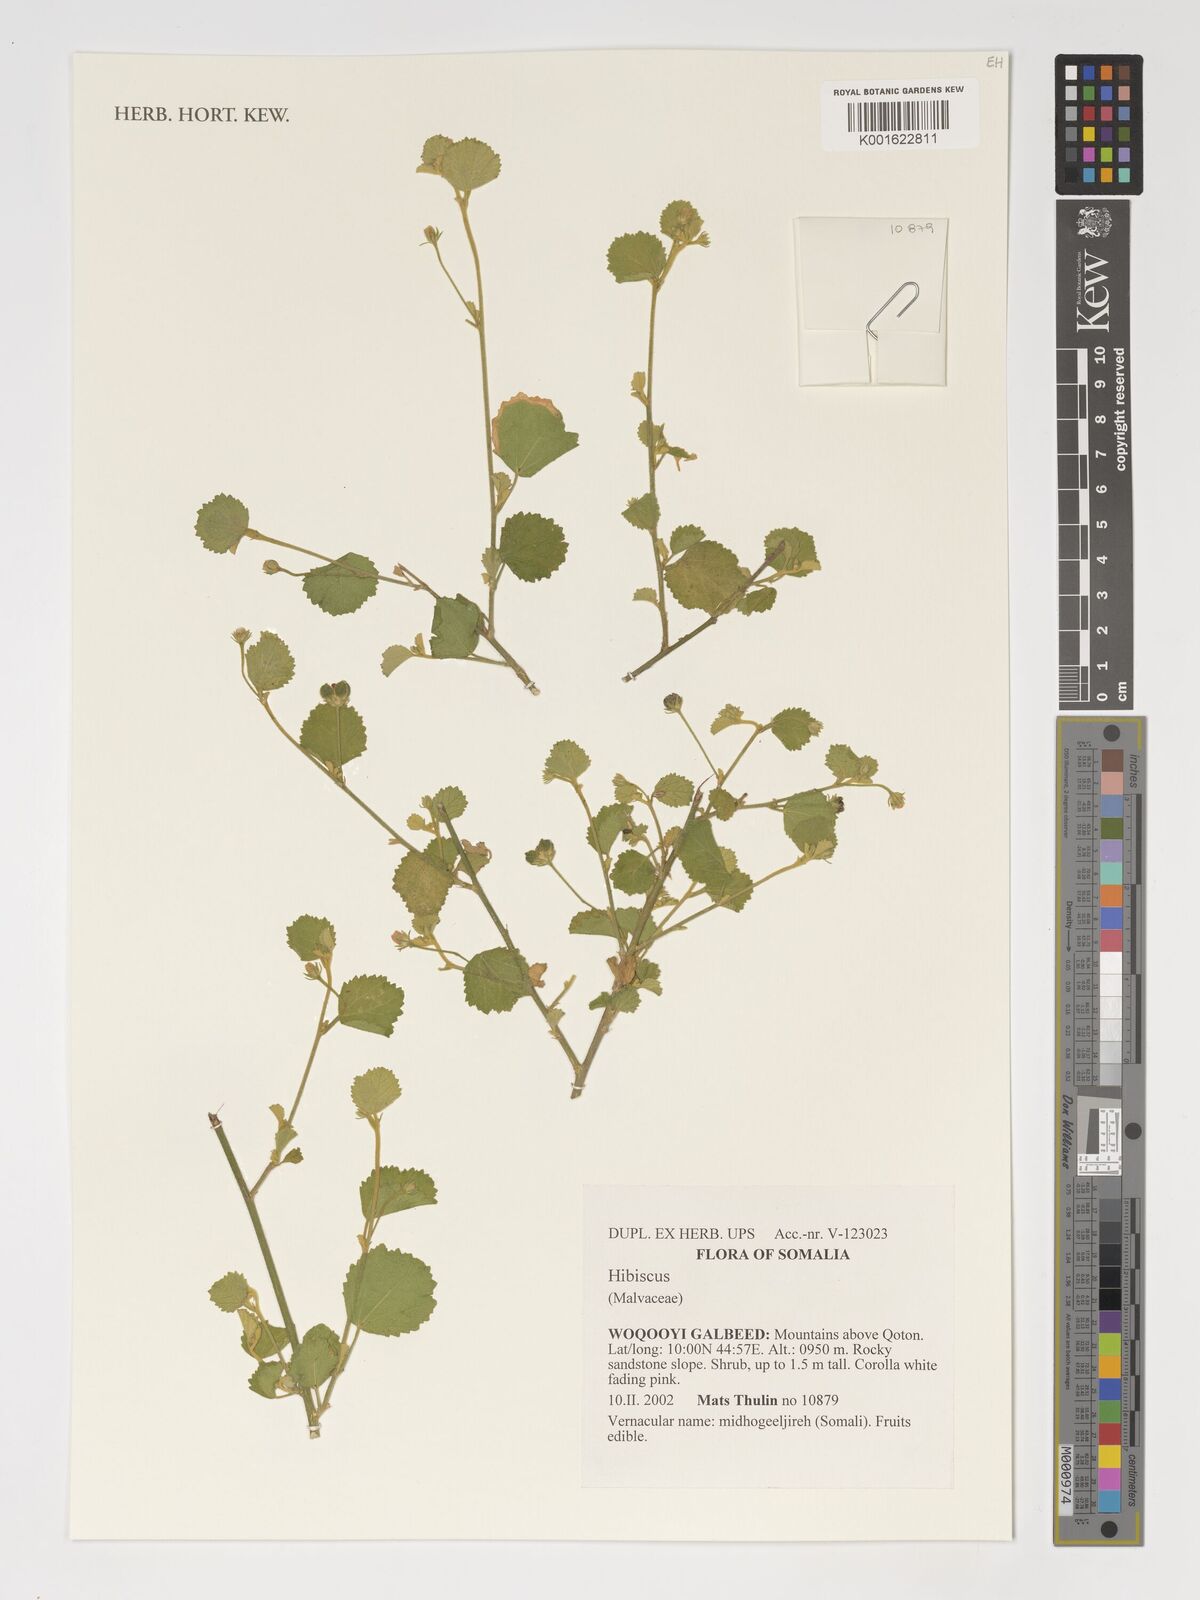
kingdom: Plantae
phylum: Tracheophyta
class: Magnoliopsida
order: Malvales
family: Malvaceae
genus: Hibiscus
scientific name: Hibiscus
